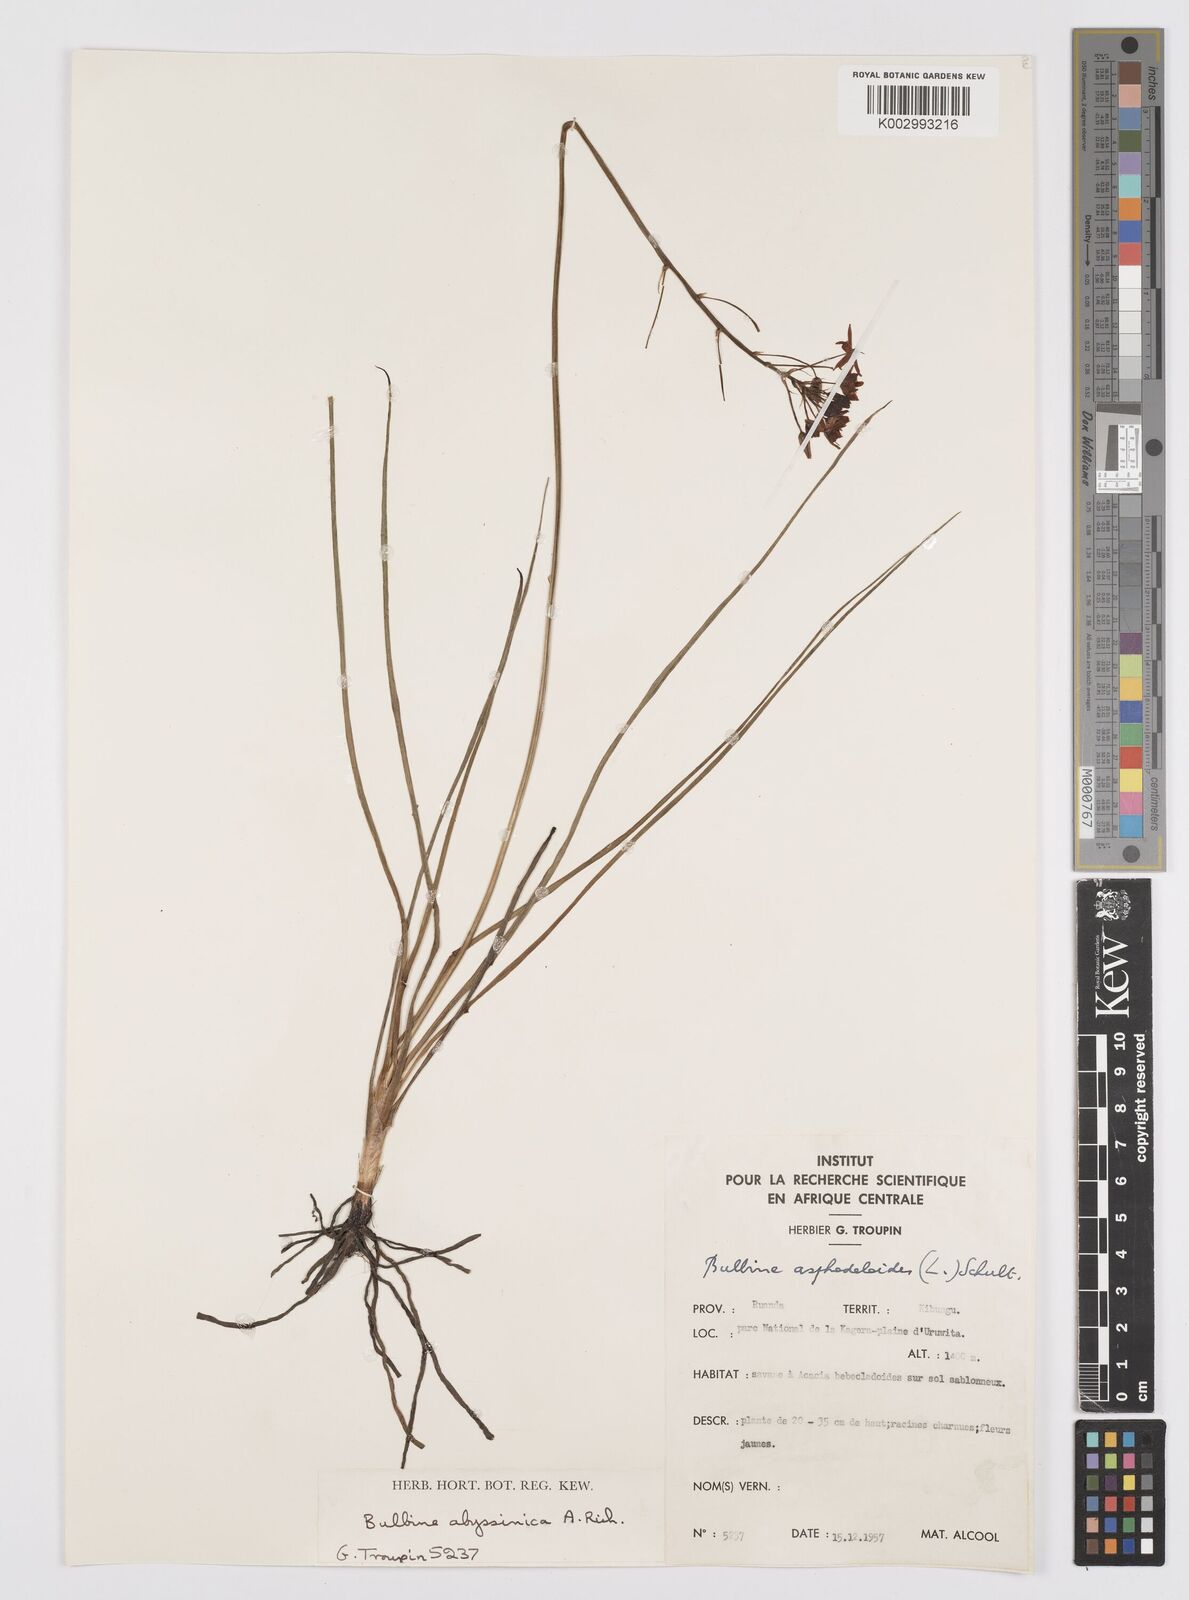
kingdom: Plantae
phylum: Tracheophyta
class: Liliopsida
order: Asparagales
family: Asphodelaceae
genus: Bulbine
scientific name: Bulbine abyssinica
